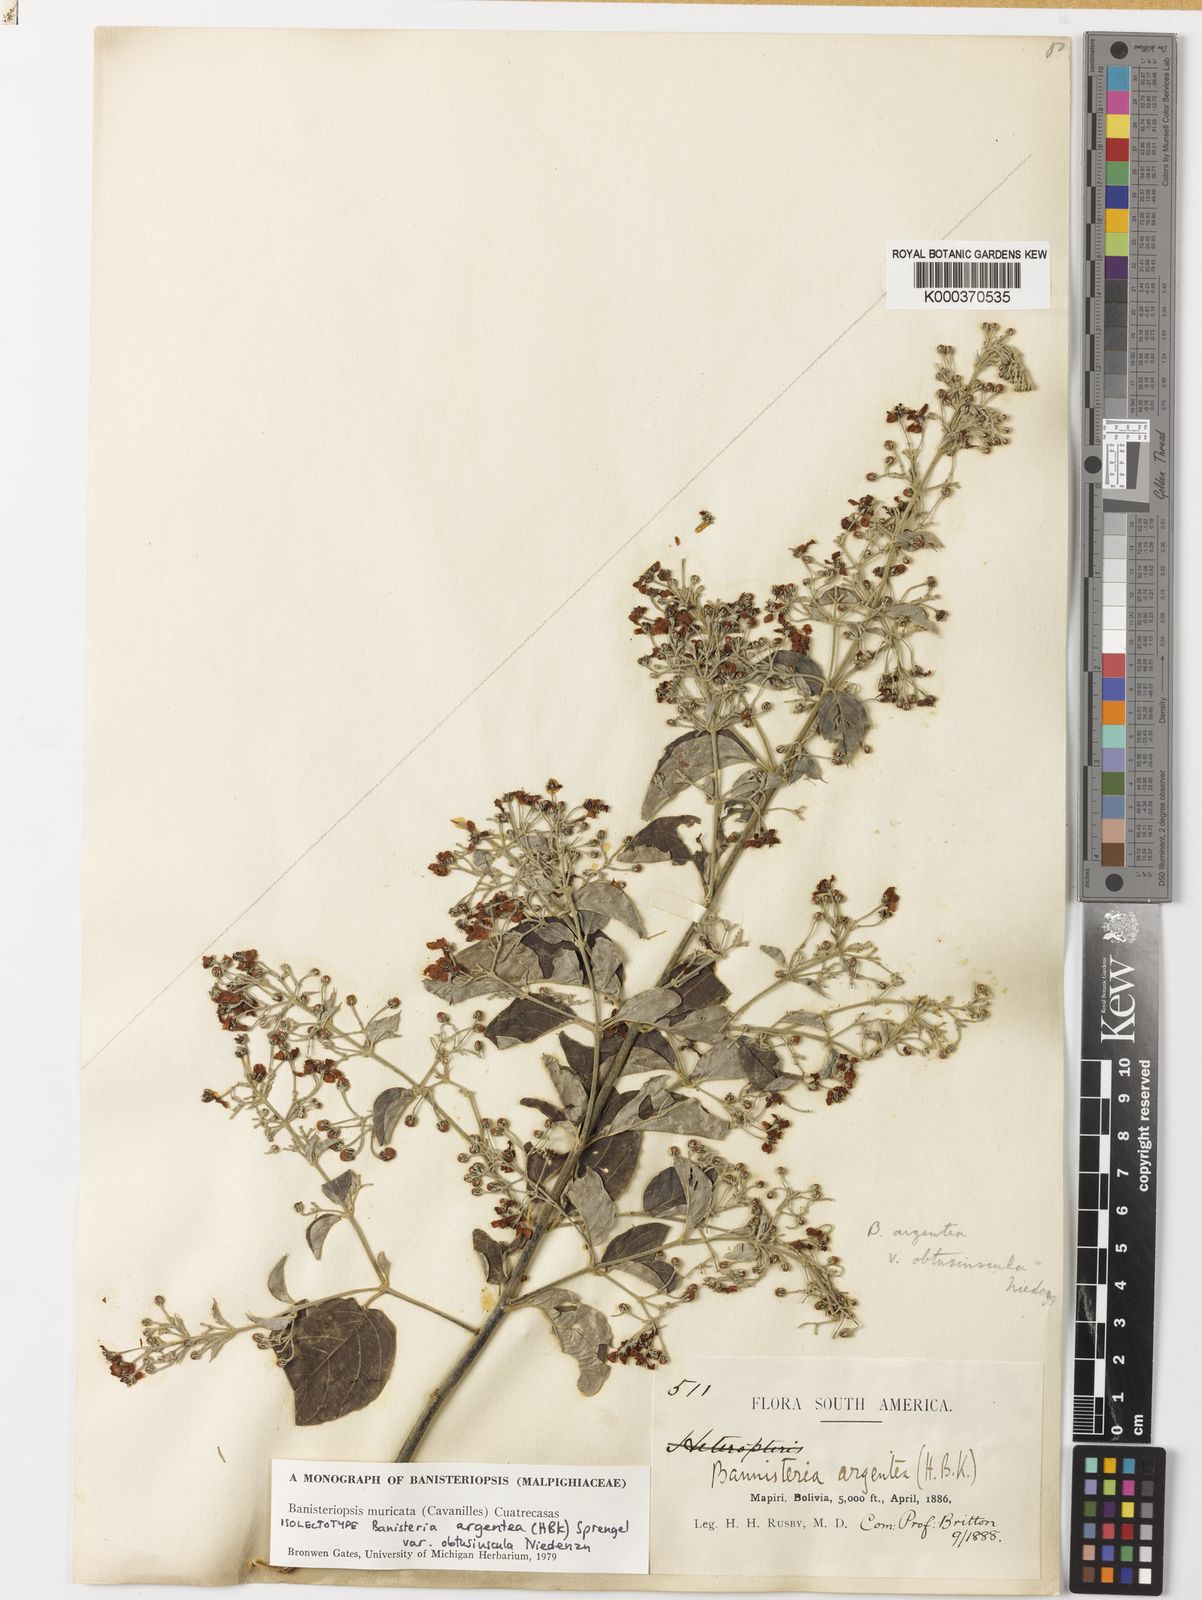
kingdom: Plantae
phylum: Tracheophyta
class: Magnoliopsida
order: Malpighiales
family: Malpighiaceae
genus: Banisteriopsis
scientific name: Banisteriopsis muricata
